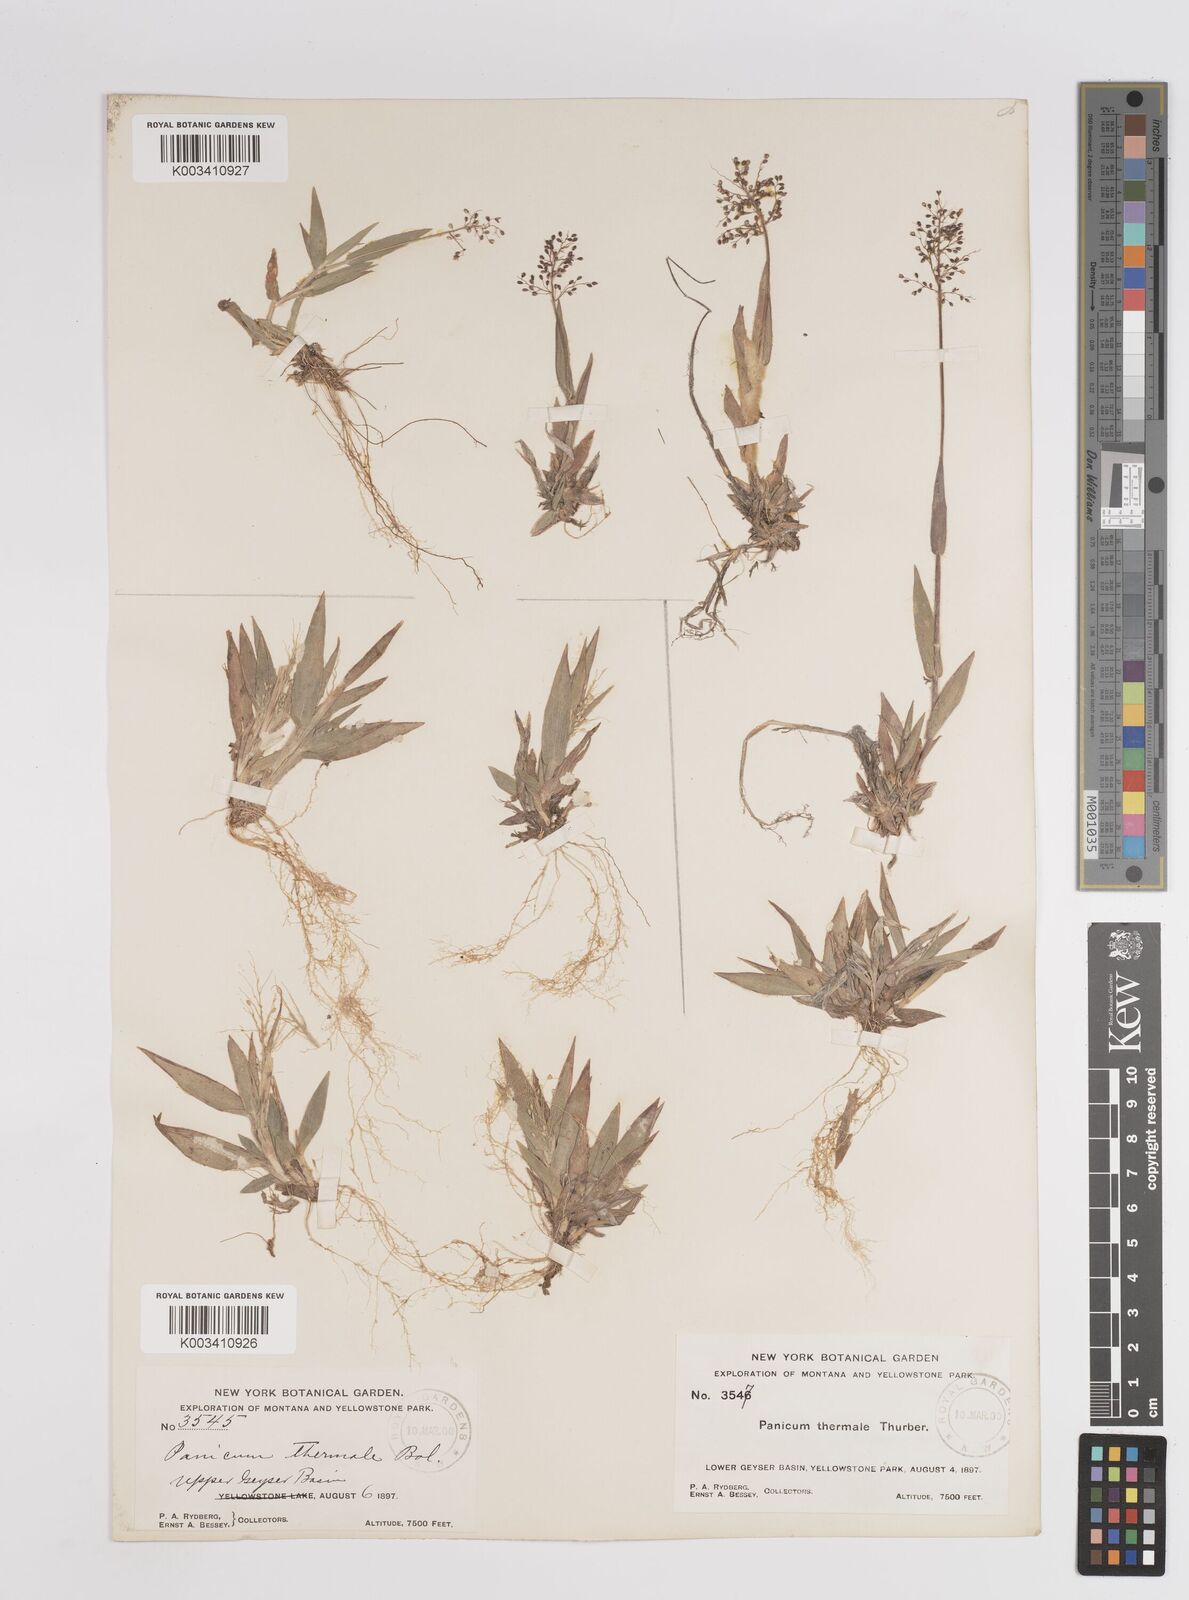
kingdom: Plantae
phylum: Tracheophyta
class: Liliopsida
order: Poales
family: Poaceae
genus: Dichanthelium
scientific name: Dichanthelium thermale
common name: Geyser panicgrass
